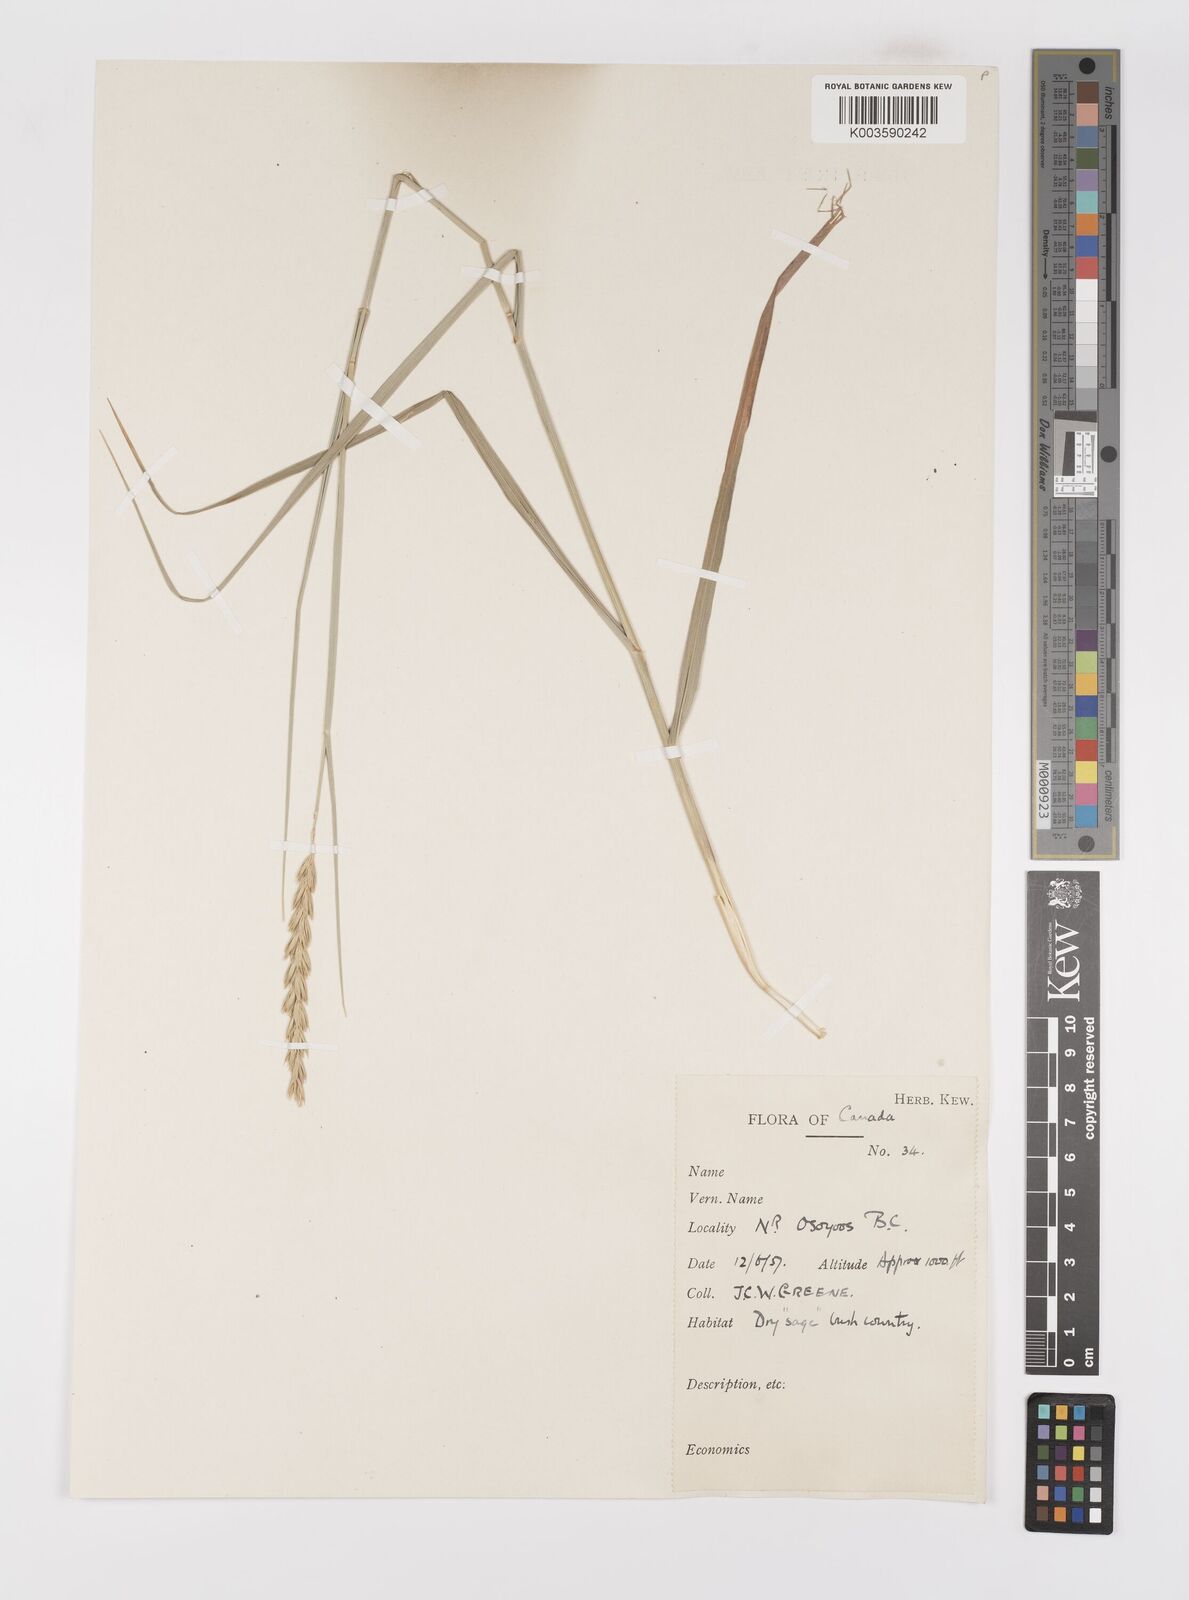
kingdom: Plantae
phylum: Tracheophyta
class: Liliopsida
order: Poales
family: Poaceae
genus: Elymus
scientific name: Elymus
